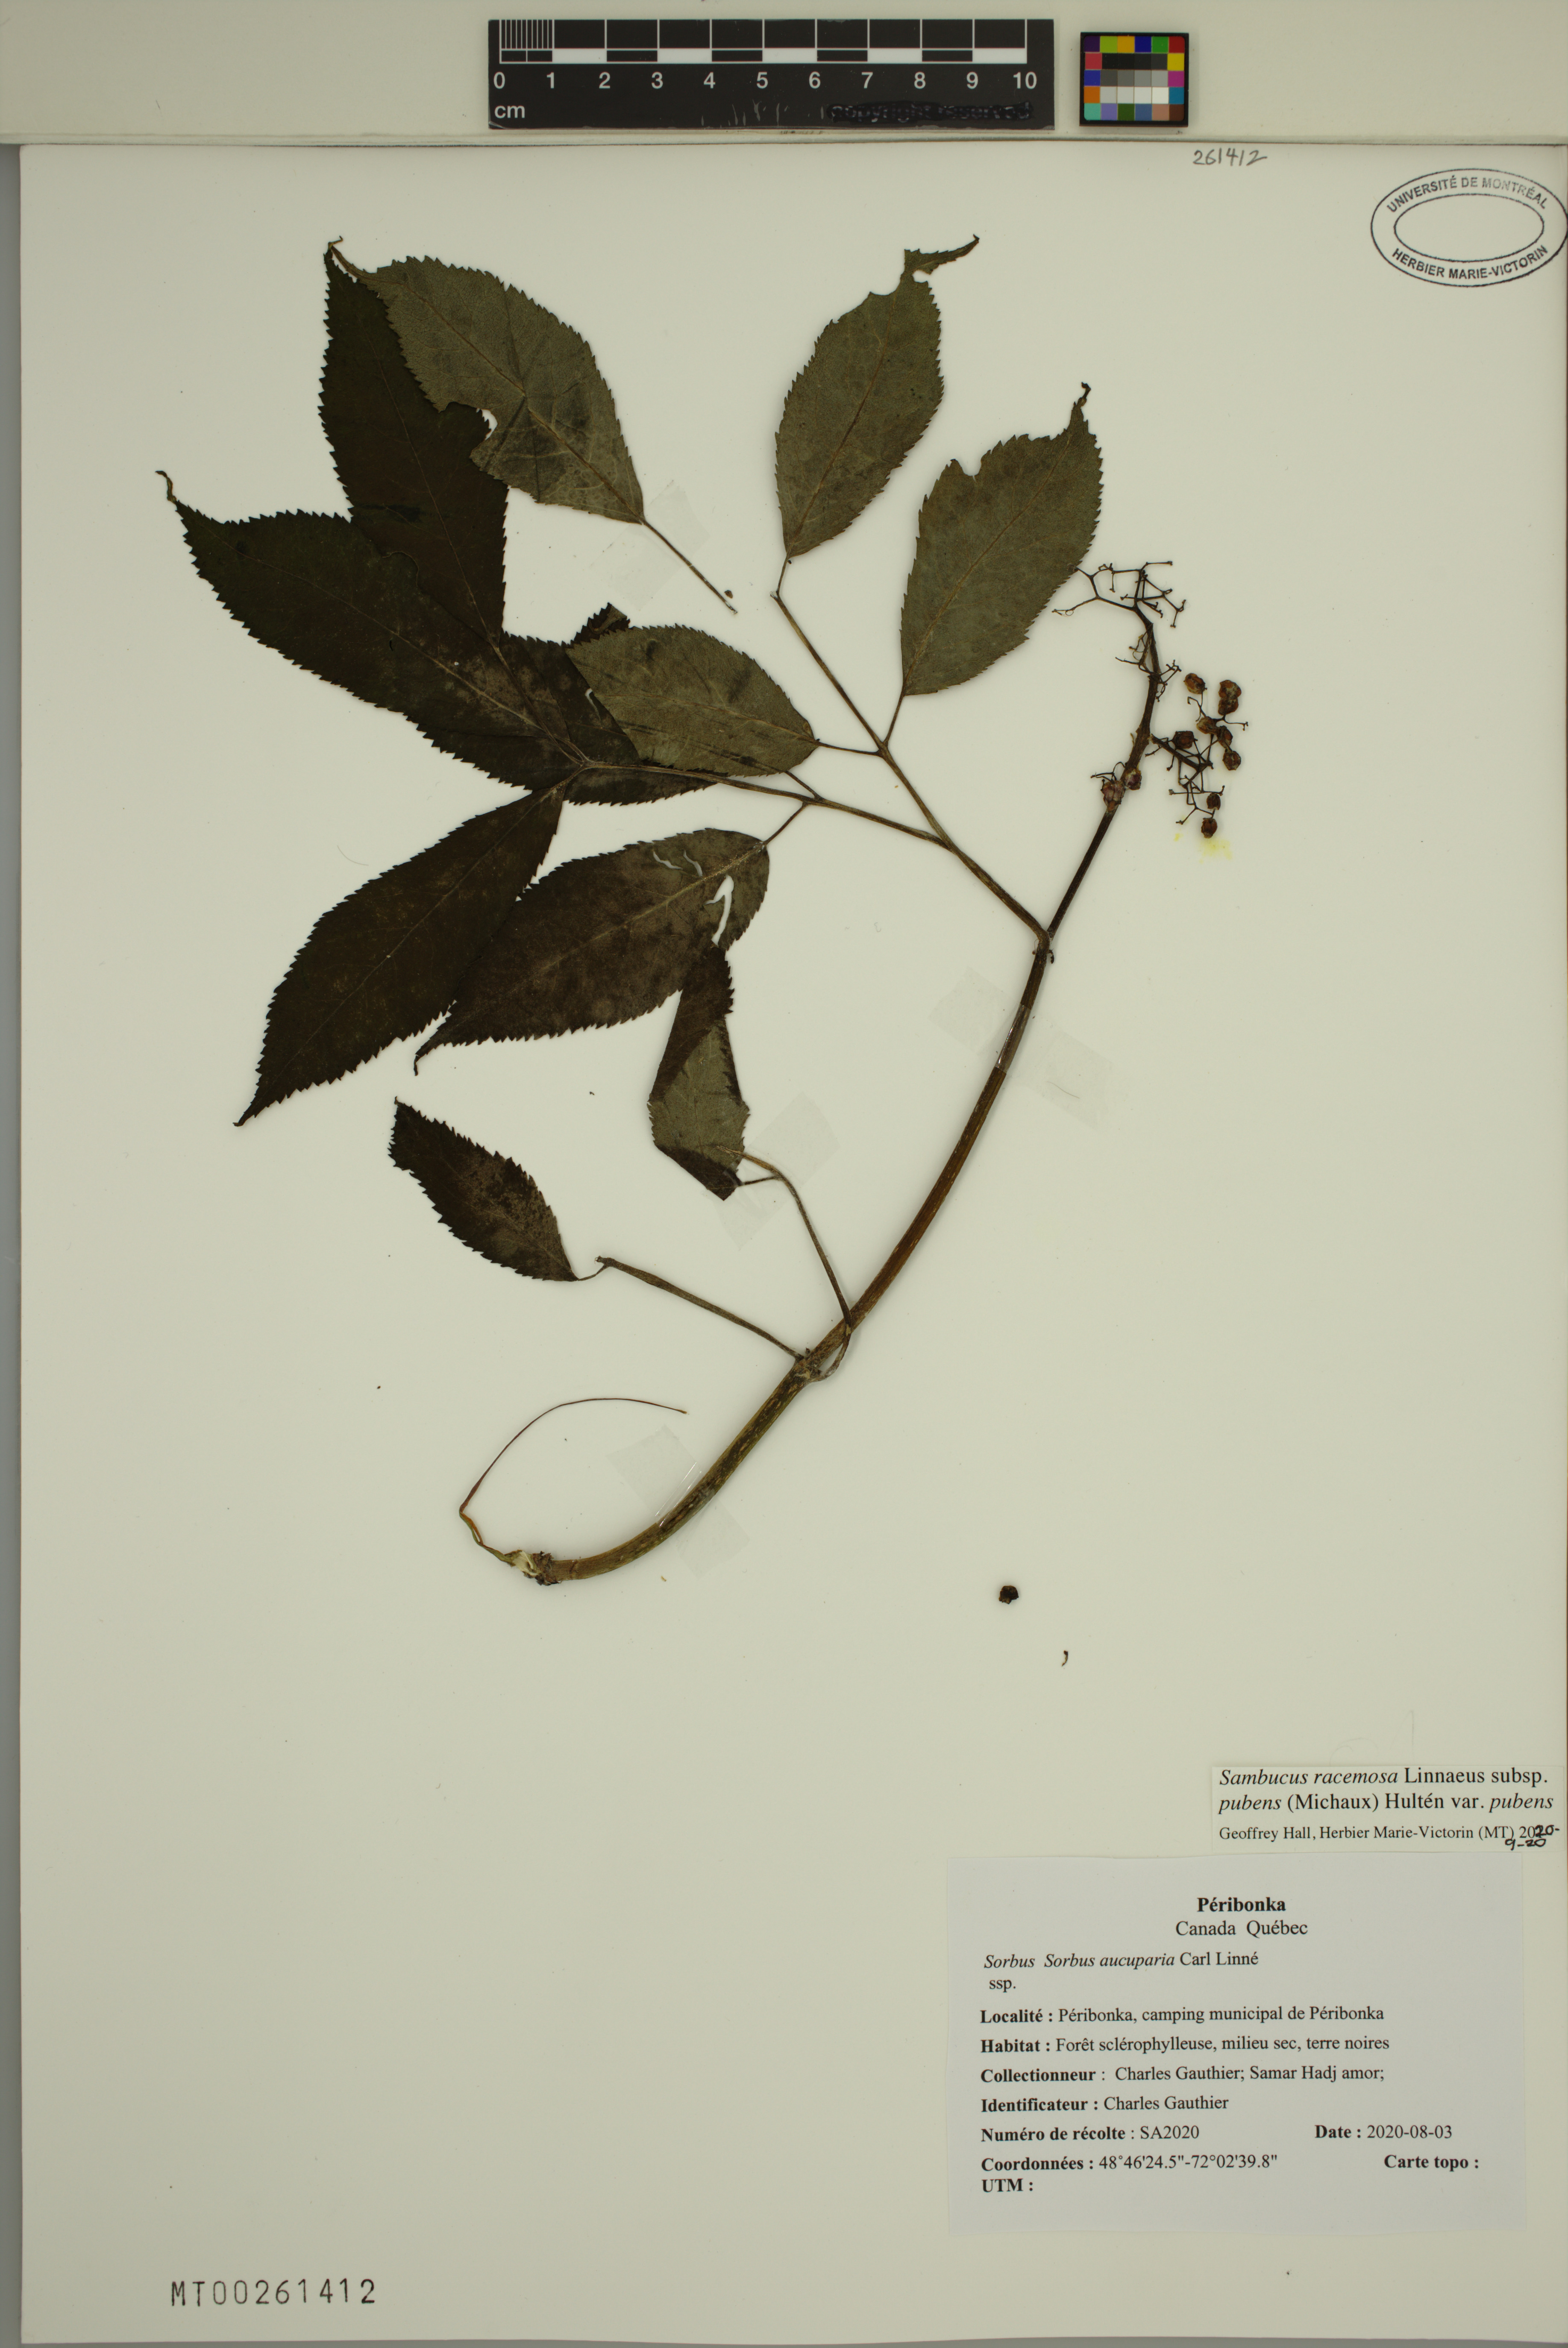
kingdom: Plantae
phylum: Tracheophyta
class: Magnoliopsida
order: Dipsacales
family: Viburnaceae
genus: Sambucus
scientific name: Sambucus racemosa
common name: Red-berried elder
